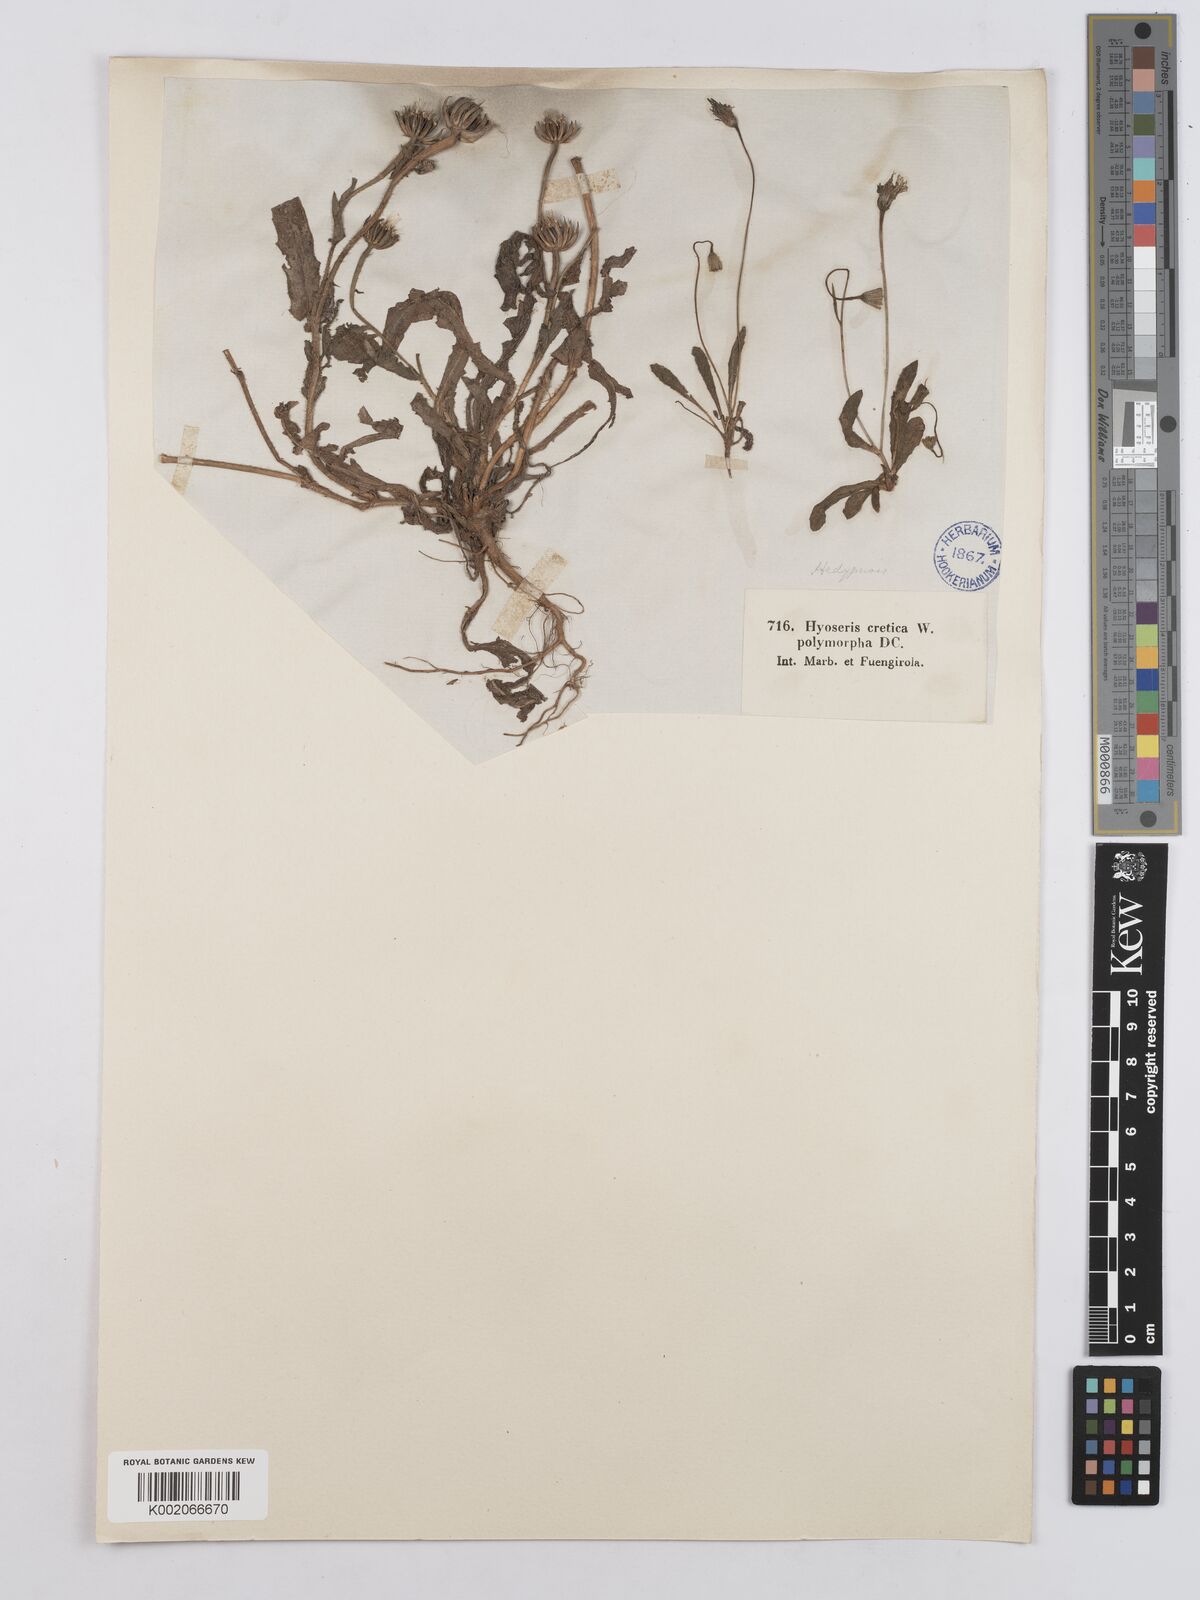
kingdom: Plantae
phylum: Tracheophyta
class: Magnoliopsida
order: Asterales
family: Asteraceae
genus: Hedypnois
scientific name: Hedypnois cretica
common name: Scaly hawkbit
